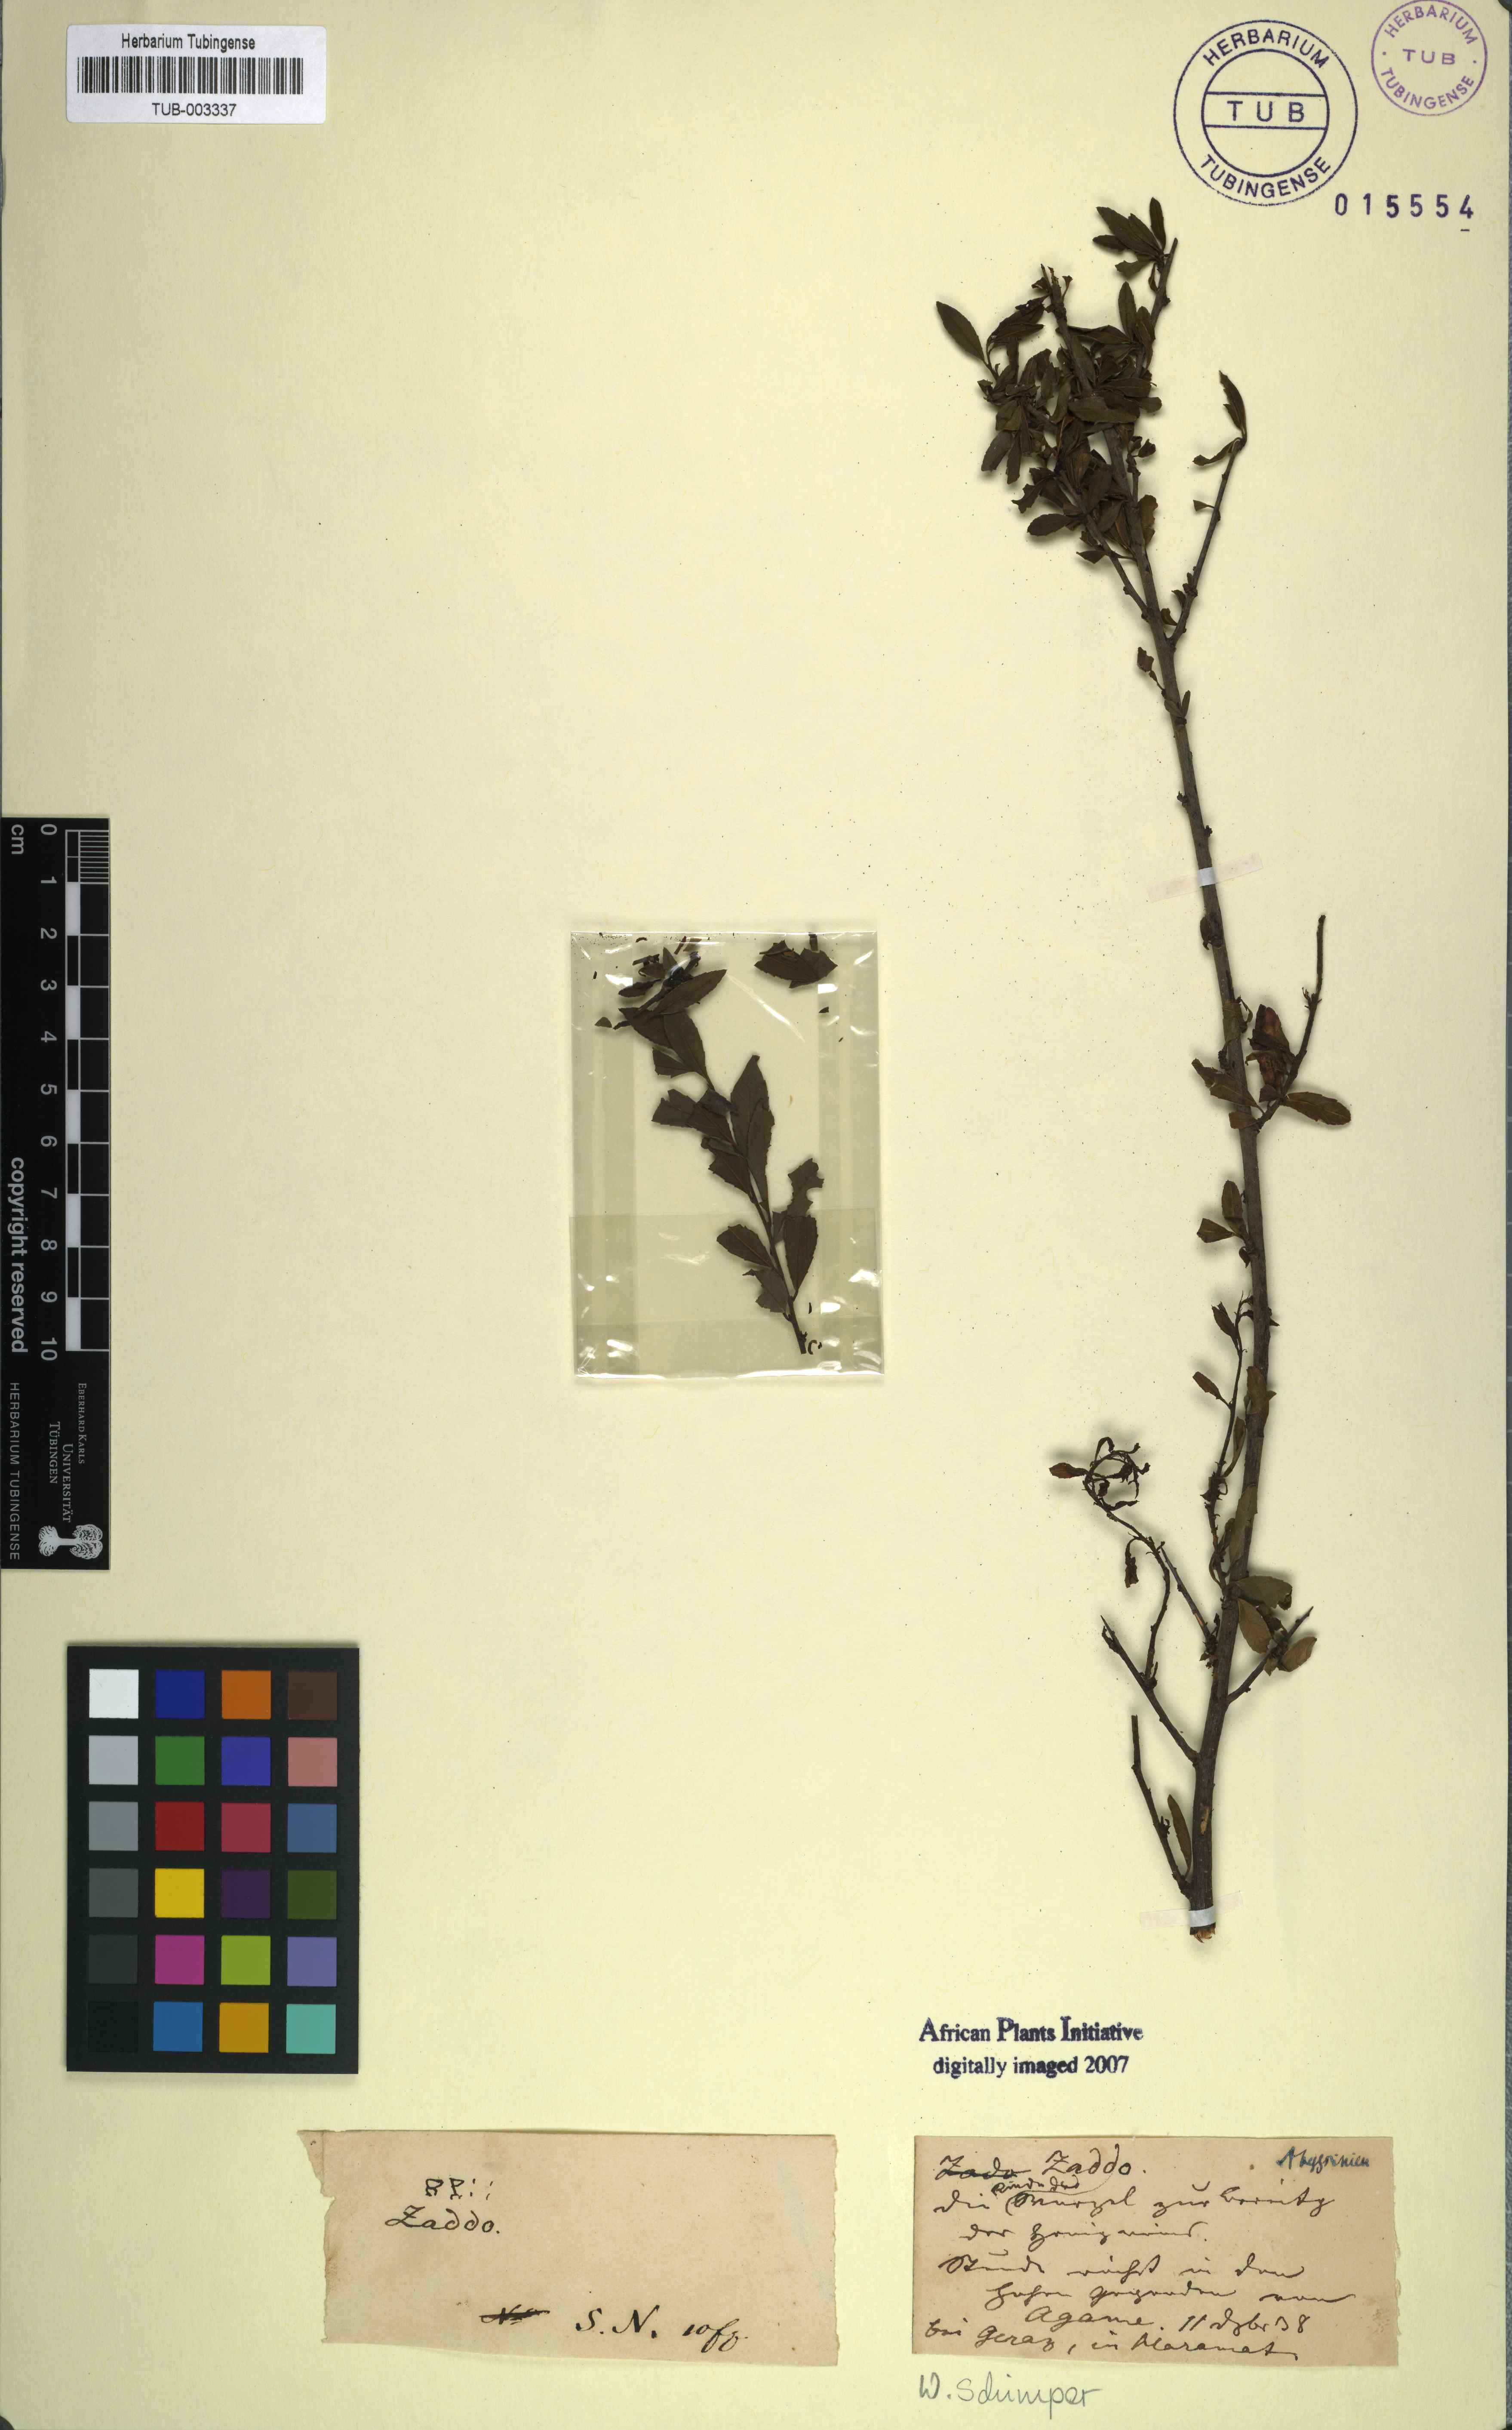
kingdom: Plantae
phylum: Tracheophyta
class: Magnoliopsida
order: Caryophyllales
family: Plumbaginaceae
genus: Ceratostigma
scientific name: Ceratostigma
